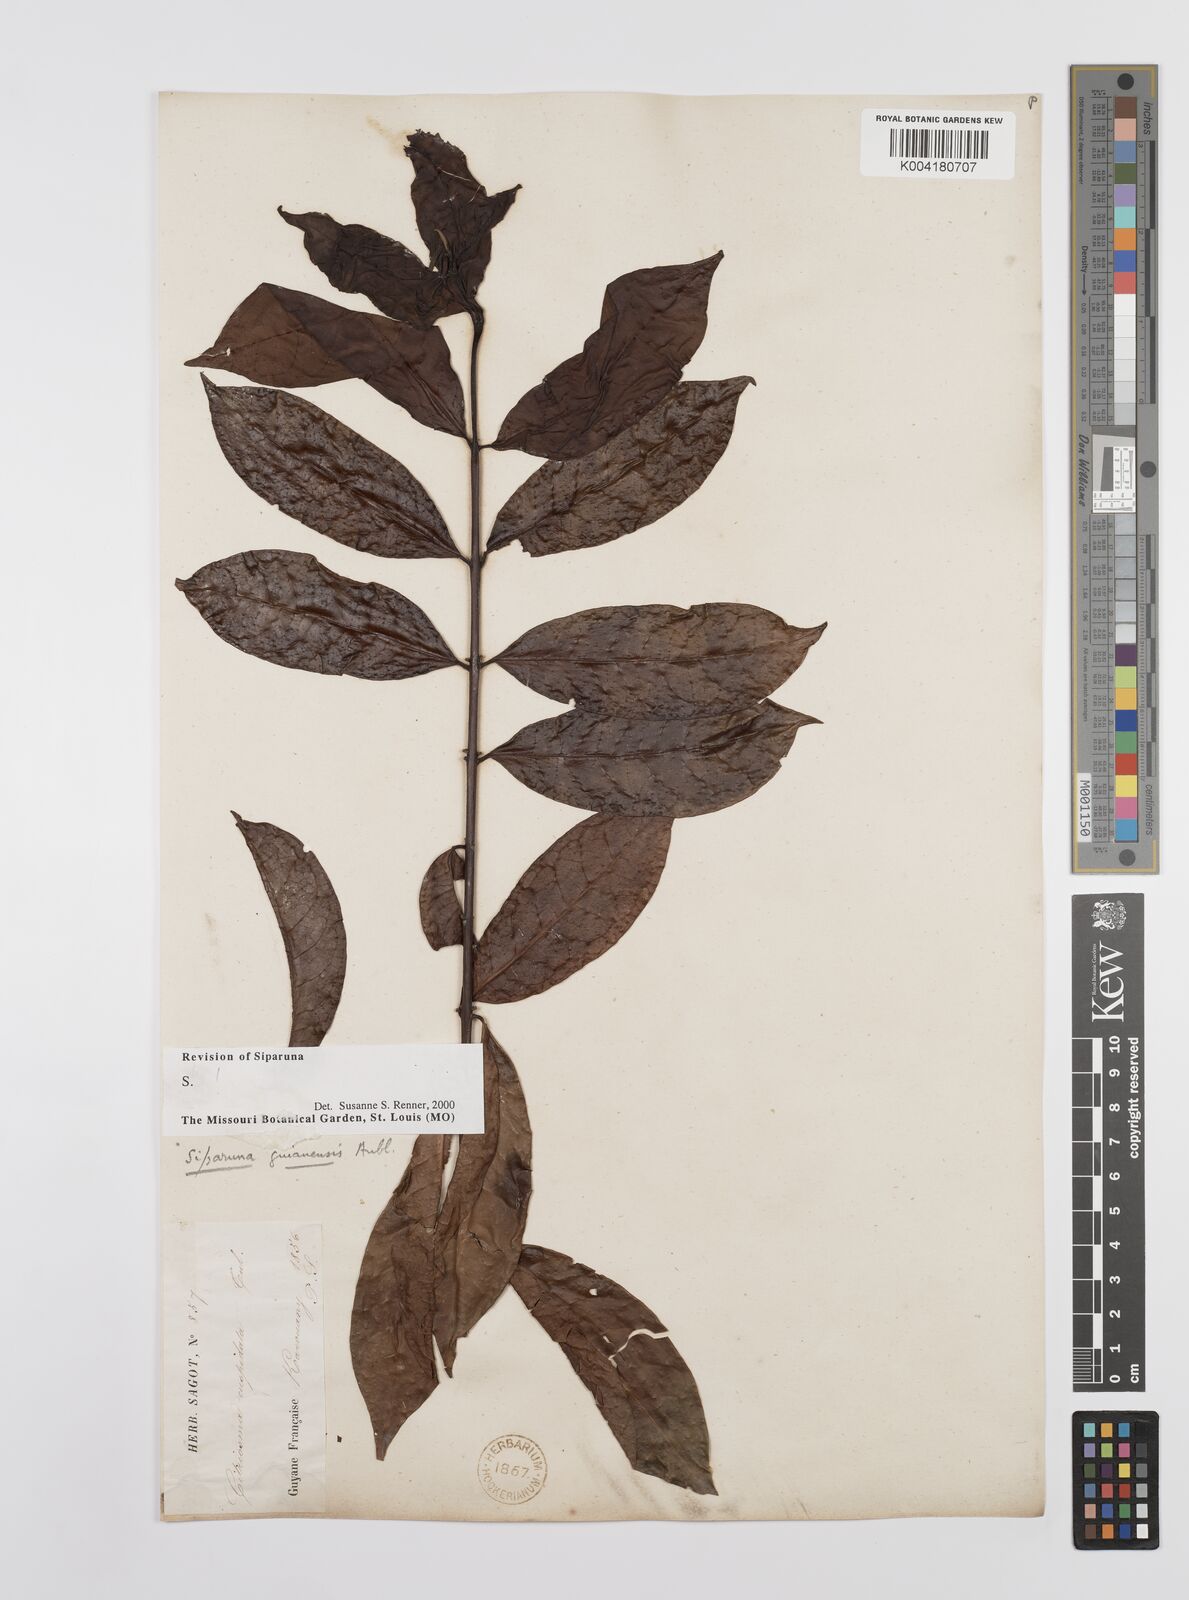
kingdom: Plantae
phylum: Tracheophyta
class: Magnoliopsida
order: Laurales
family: Siparunaceae
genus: Siparuna
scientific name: Siparuna guianensis
